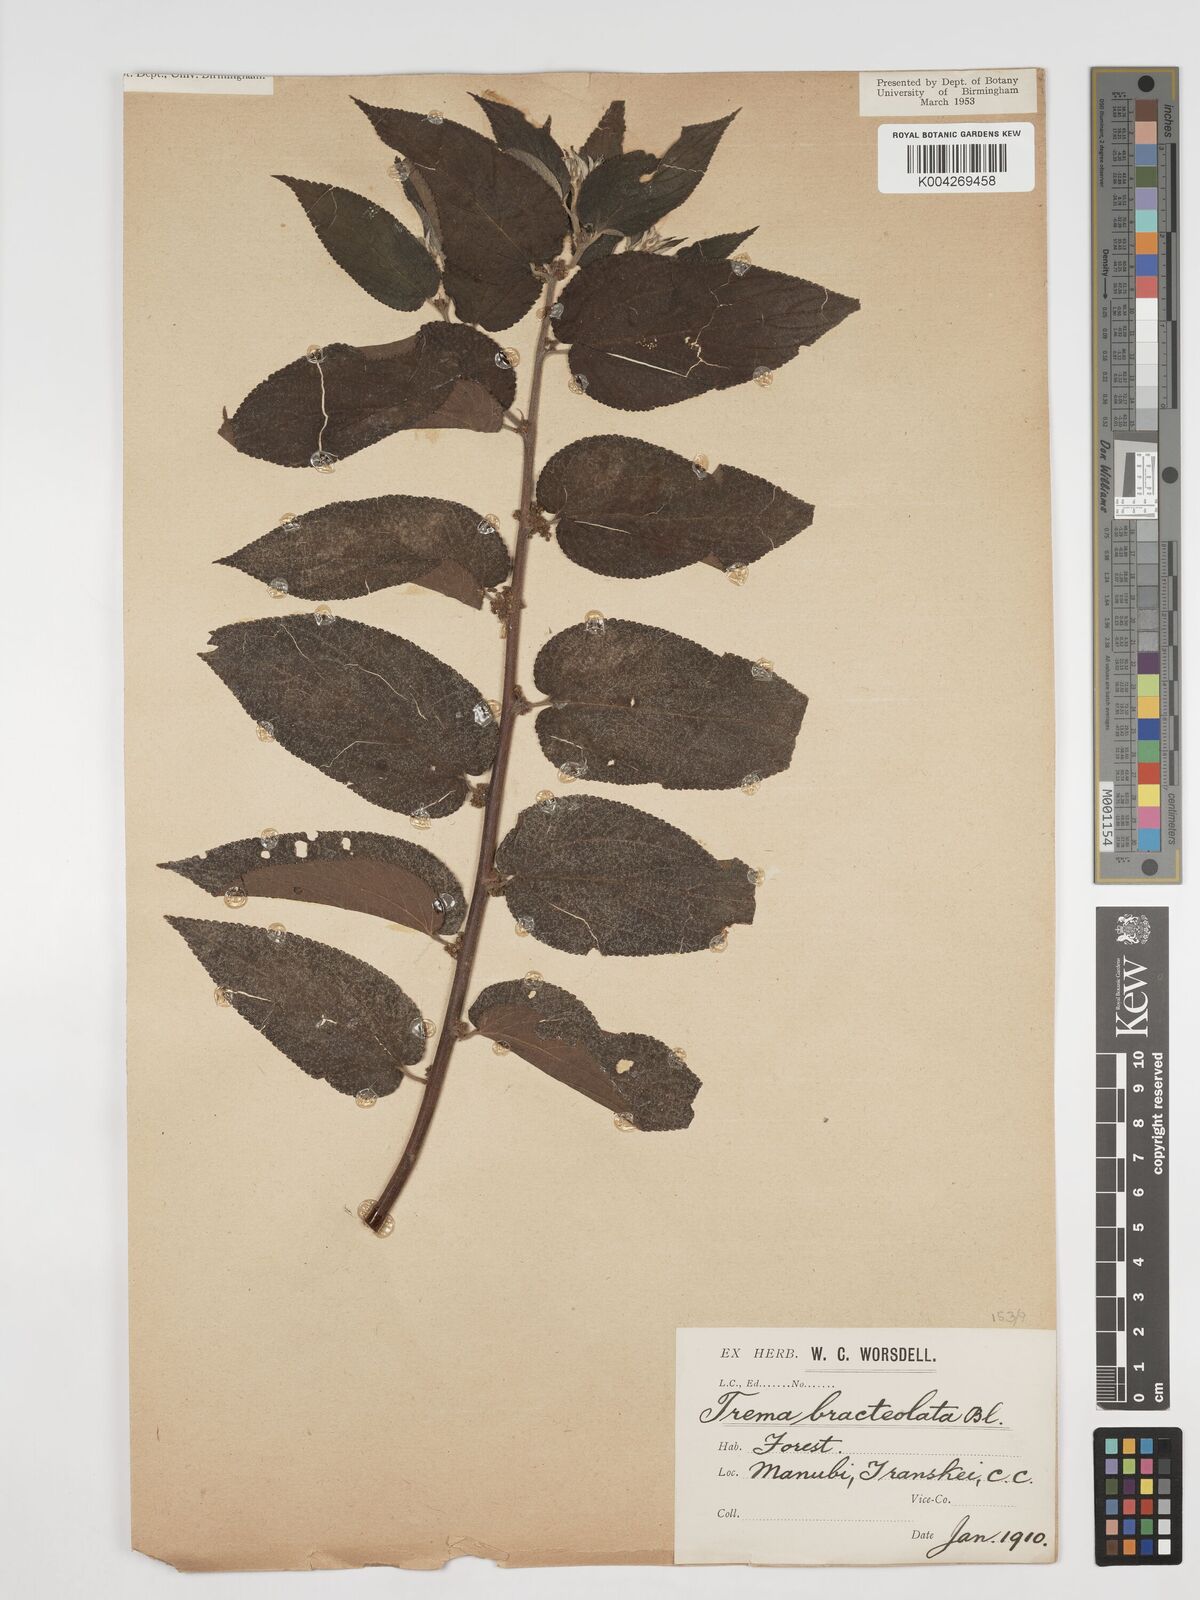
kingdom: Plantae
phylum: Tracheophyta
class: Magnoliopsida
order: Rosales
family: Cannabaceae
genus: Trema
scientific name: Trema orientale
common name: Indian charcoal tree
